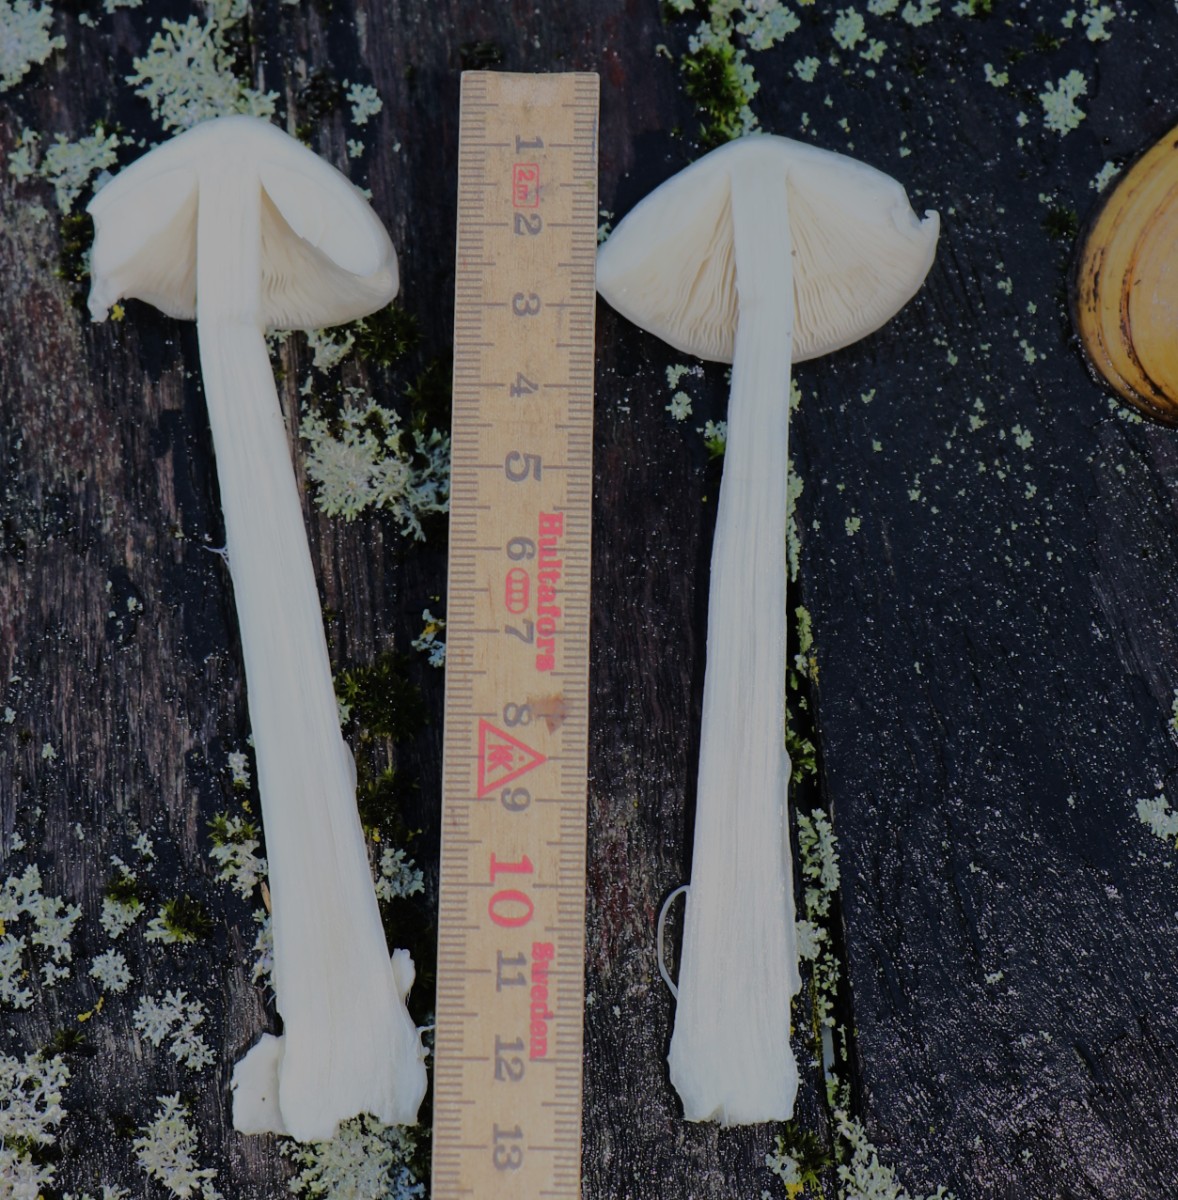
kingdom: Fungi
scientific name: Fungi
